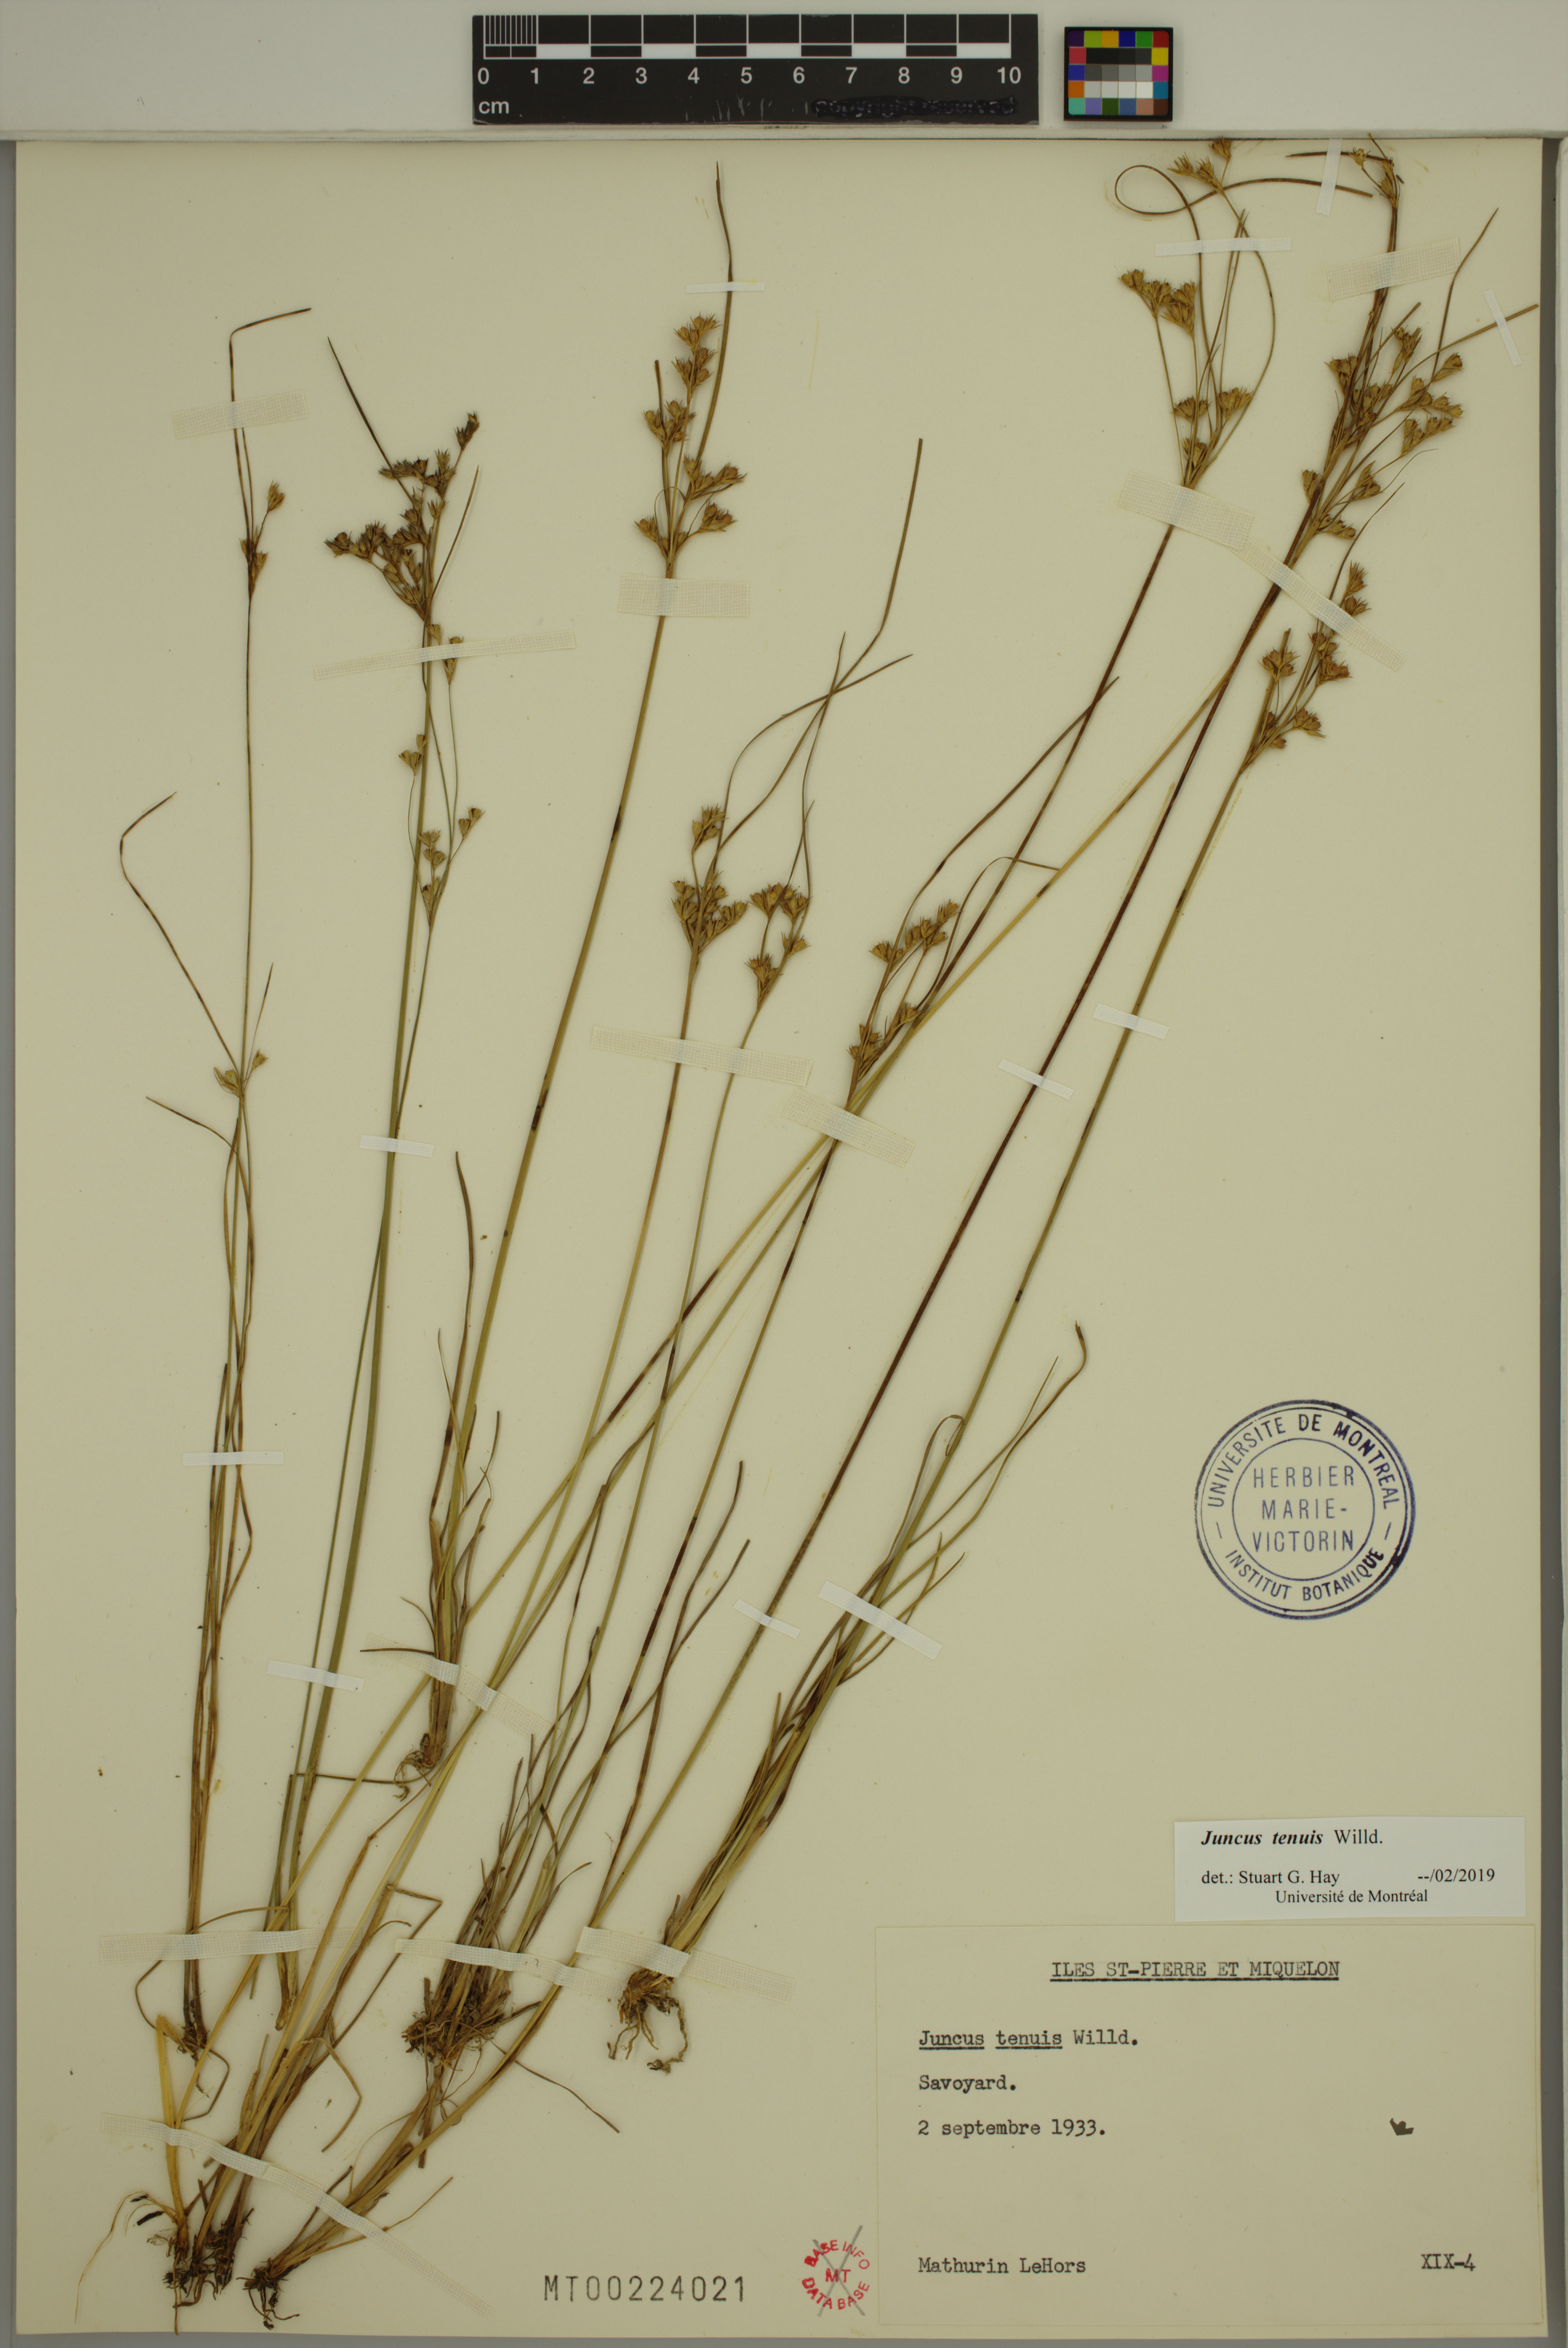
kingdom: Plantae
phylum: Tracheophyta
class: Liliopsida
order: Poales
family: Juncaceae
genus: Juncus
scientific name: Juncus tenuis
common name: Slender rush
